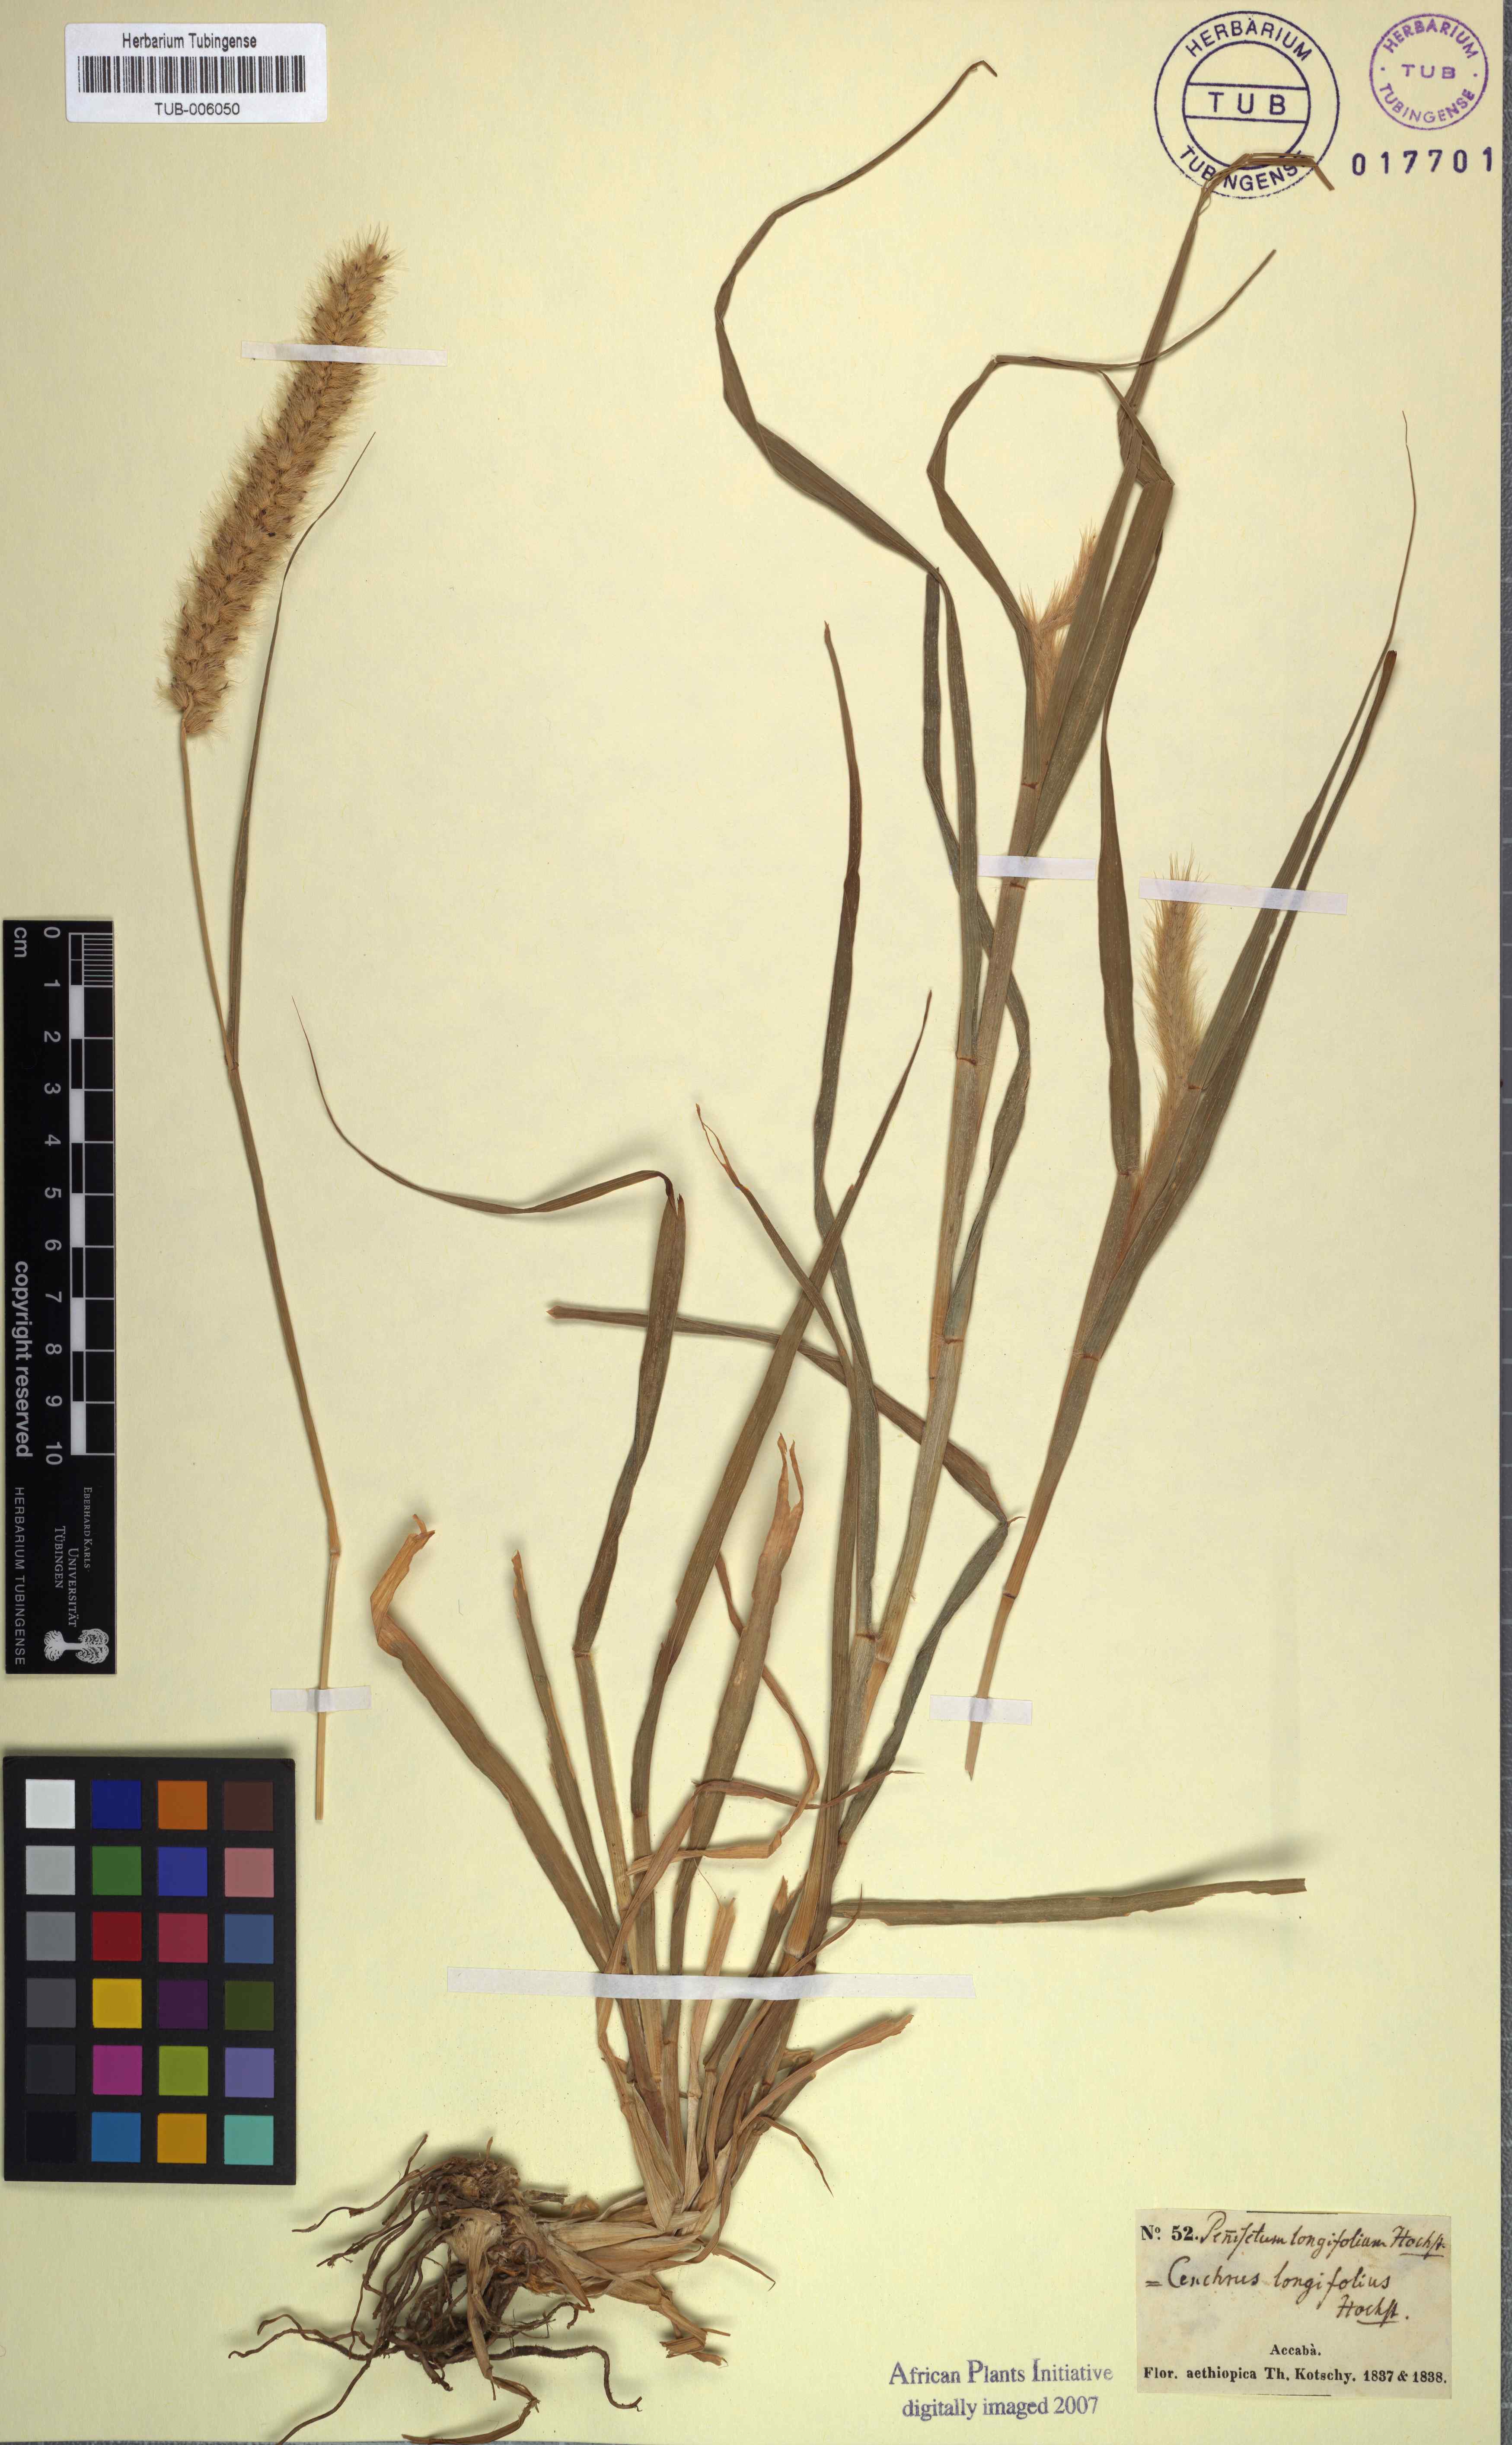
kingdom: Plantae
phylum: Tracheophyta
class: Liliopsida
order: Poales
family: Poaceae
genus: Cenchrus
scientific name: Cenchrus ciliaris
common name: Buffelgrass
